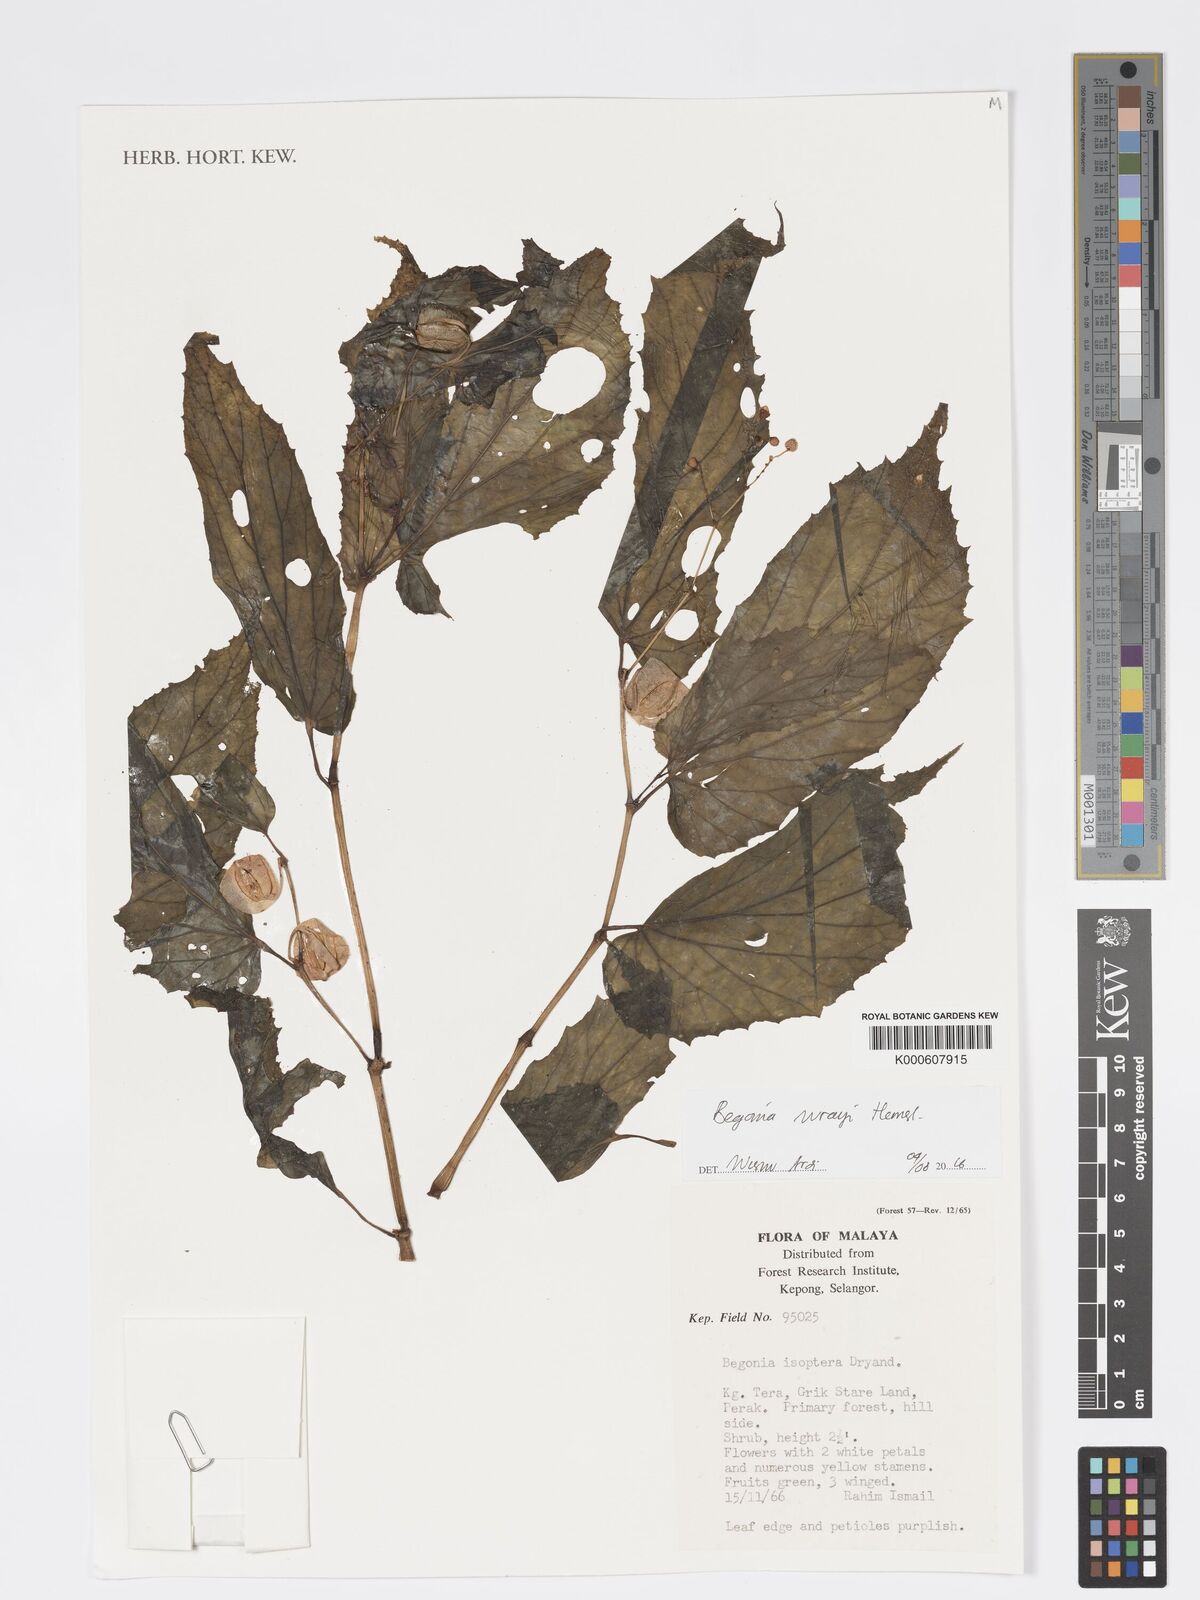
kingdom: Plantae
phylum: Tracheophyta
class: Magnoliopsida
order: Cucurbitales
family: Begoniaceae
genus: Begonia
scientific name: Begonia wrayi
